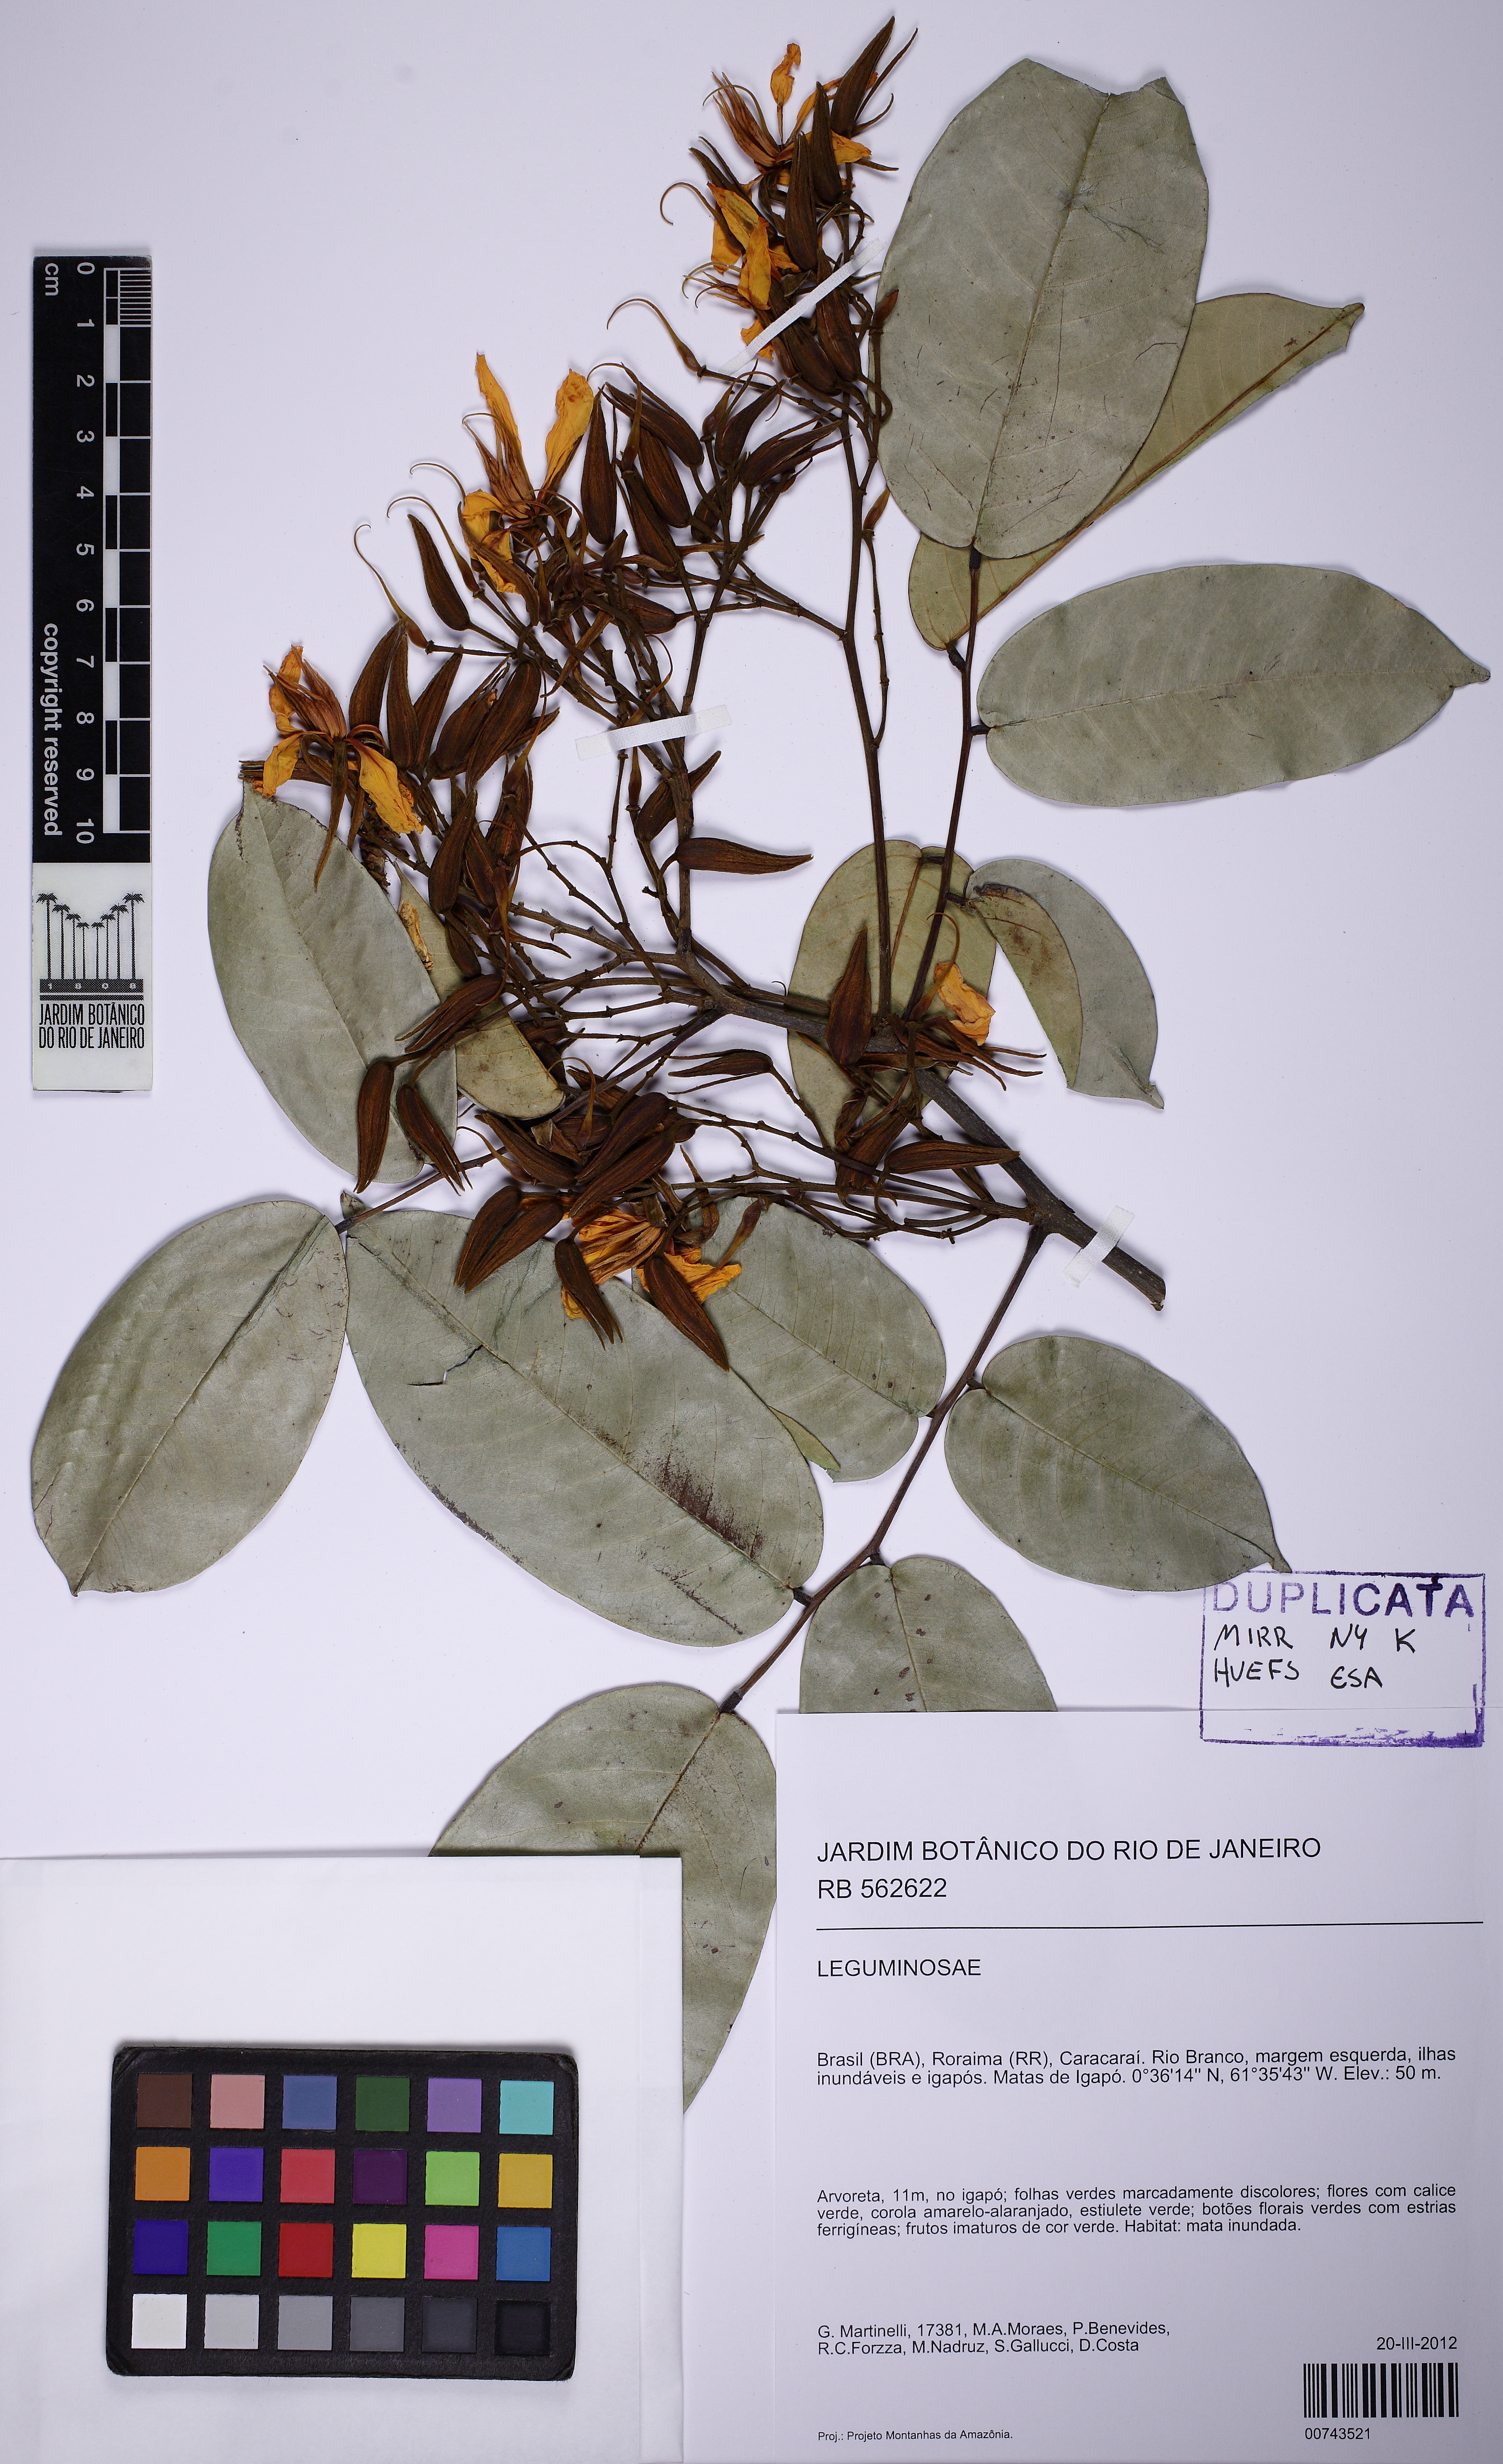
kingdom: Plantae
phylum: Tracheophyta
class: Magnoliopsida
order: Fabales
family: Fabaceae
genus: Martiodendron
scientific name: Martiodendron excelsum
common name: Tatabuballi
